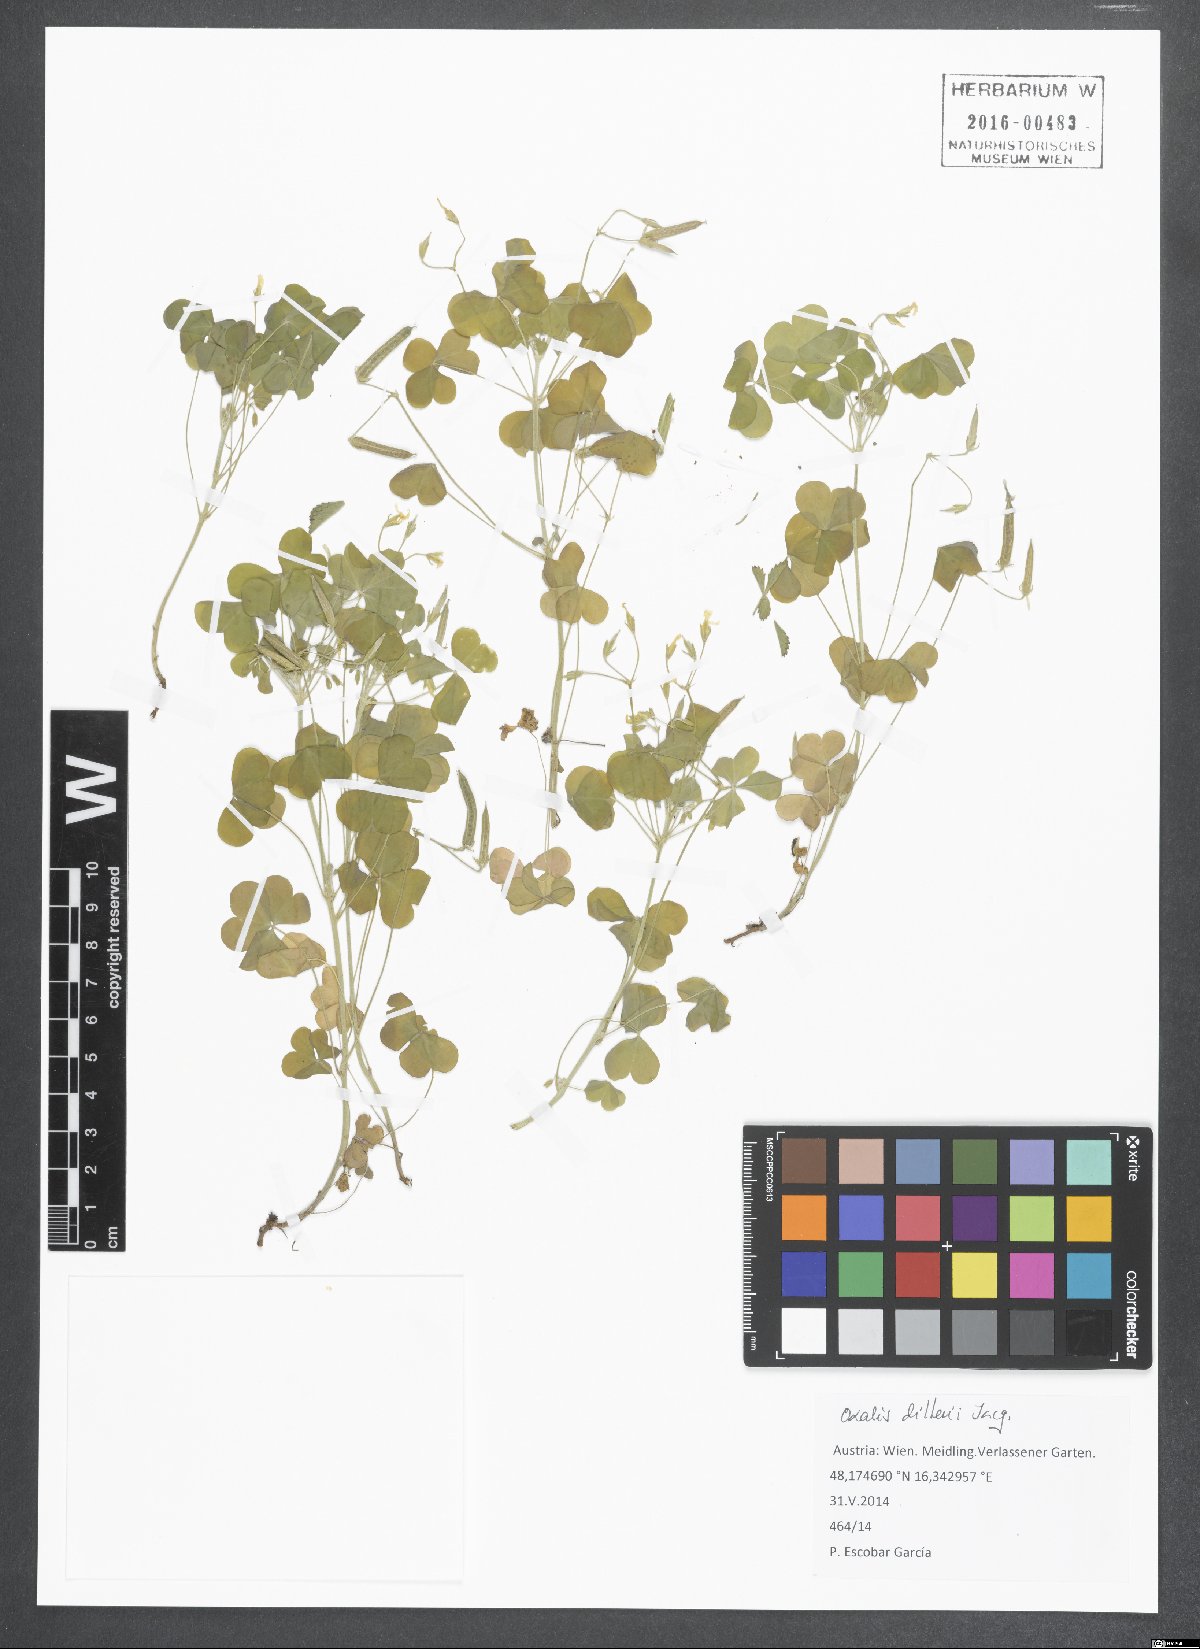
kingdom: Plantae
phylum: Tracheophyta
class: Magnoliopsida
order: Oxalidales
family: Oxalidaceae
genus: Oxalis
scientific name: Oxalis dillenii
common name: Sussex yellow-sorrel
